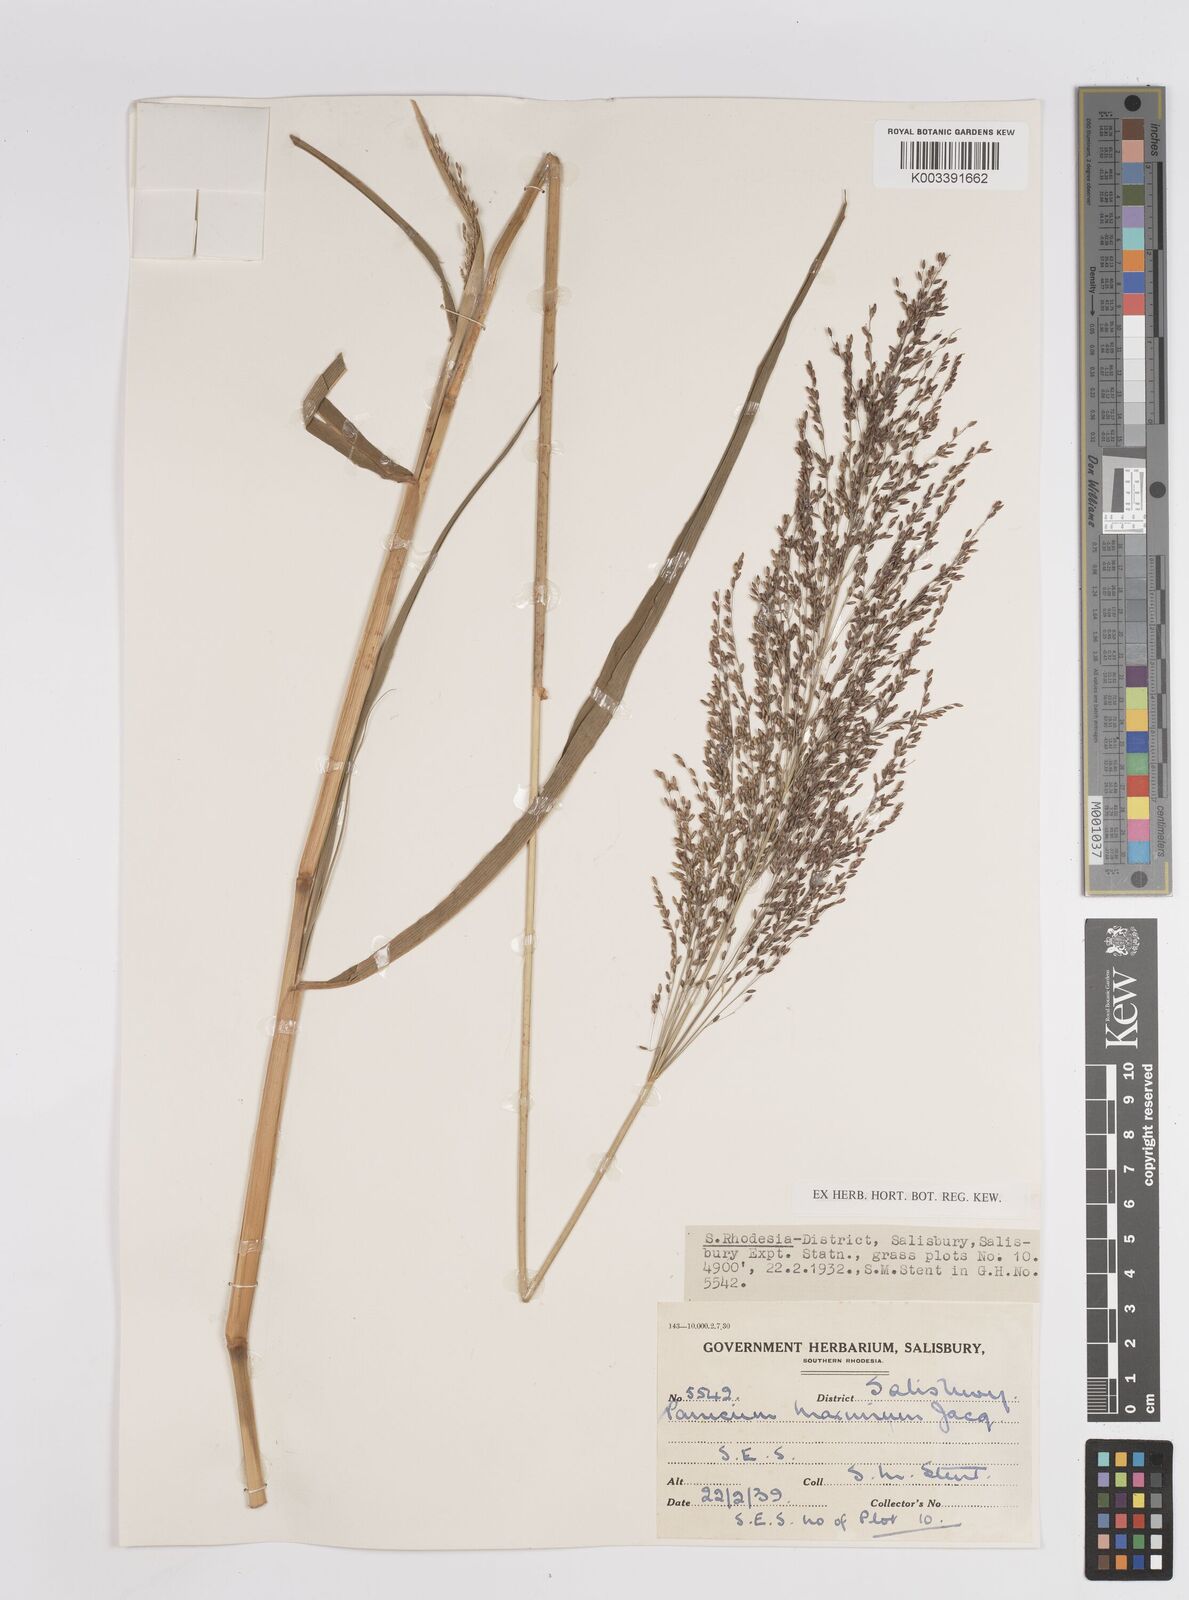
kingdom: Plantae
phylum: Tracheophyta
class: Liliopsida
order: Poales
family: Poaceae
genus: Megathyrsus
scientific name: Megathyrsus maximus
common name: Guineagrass
